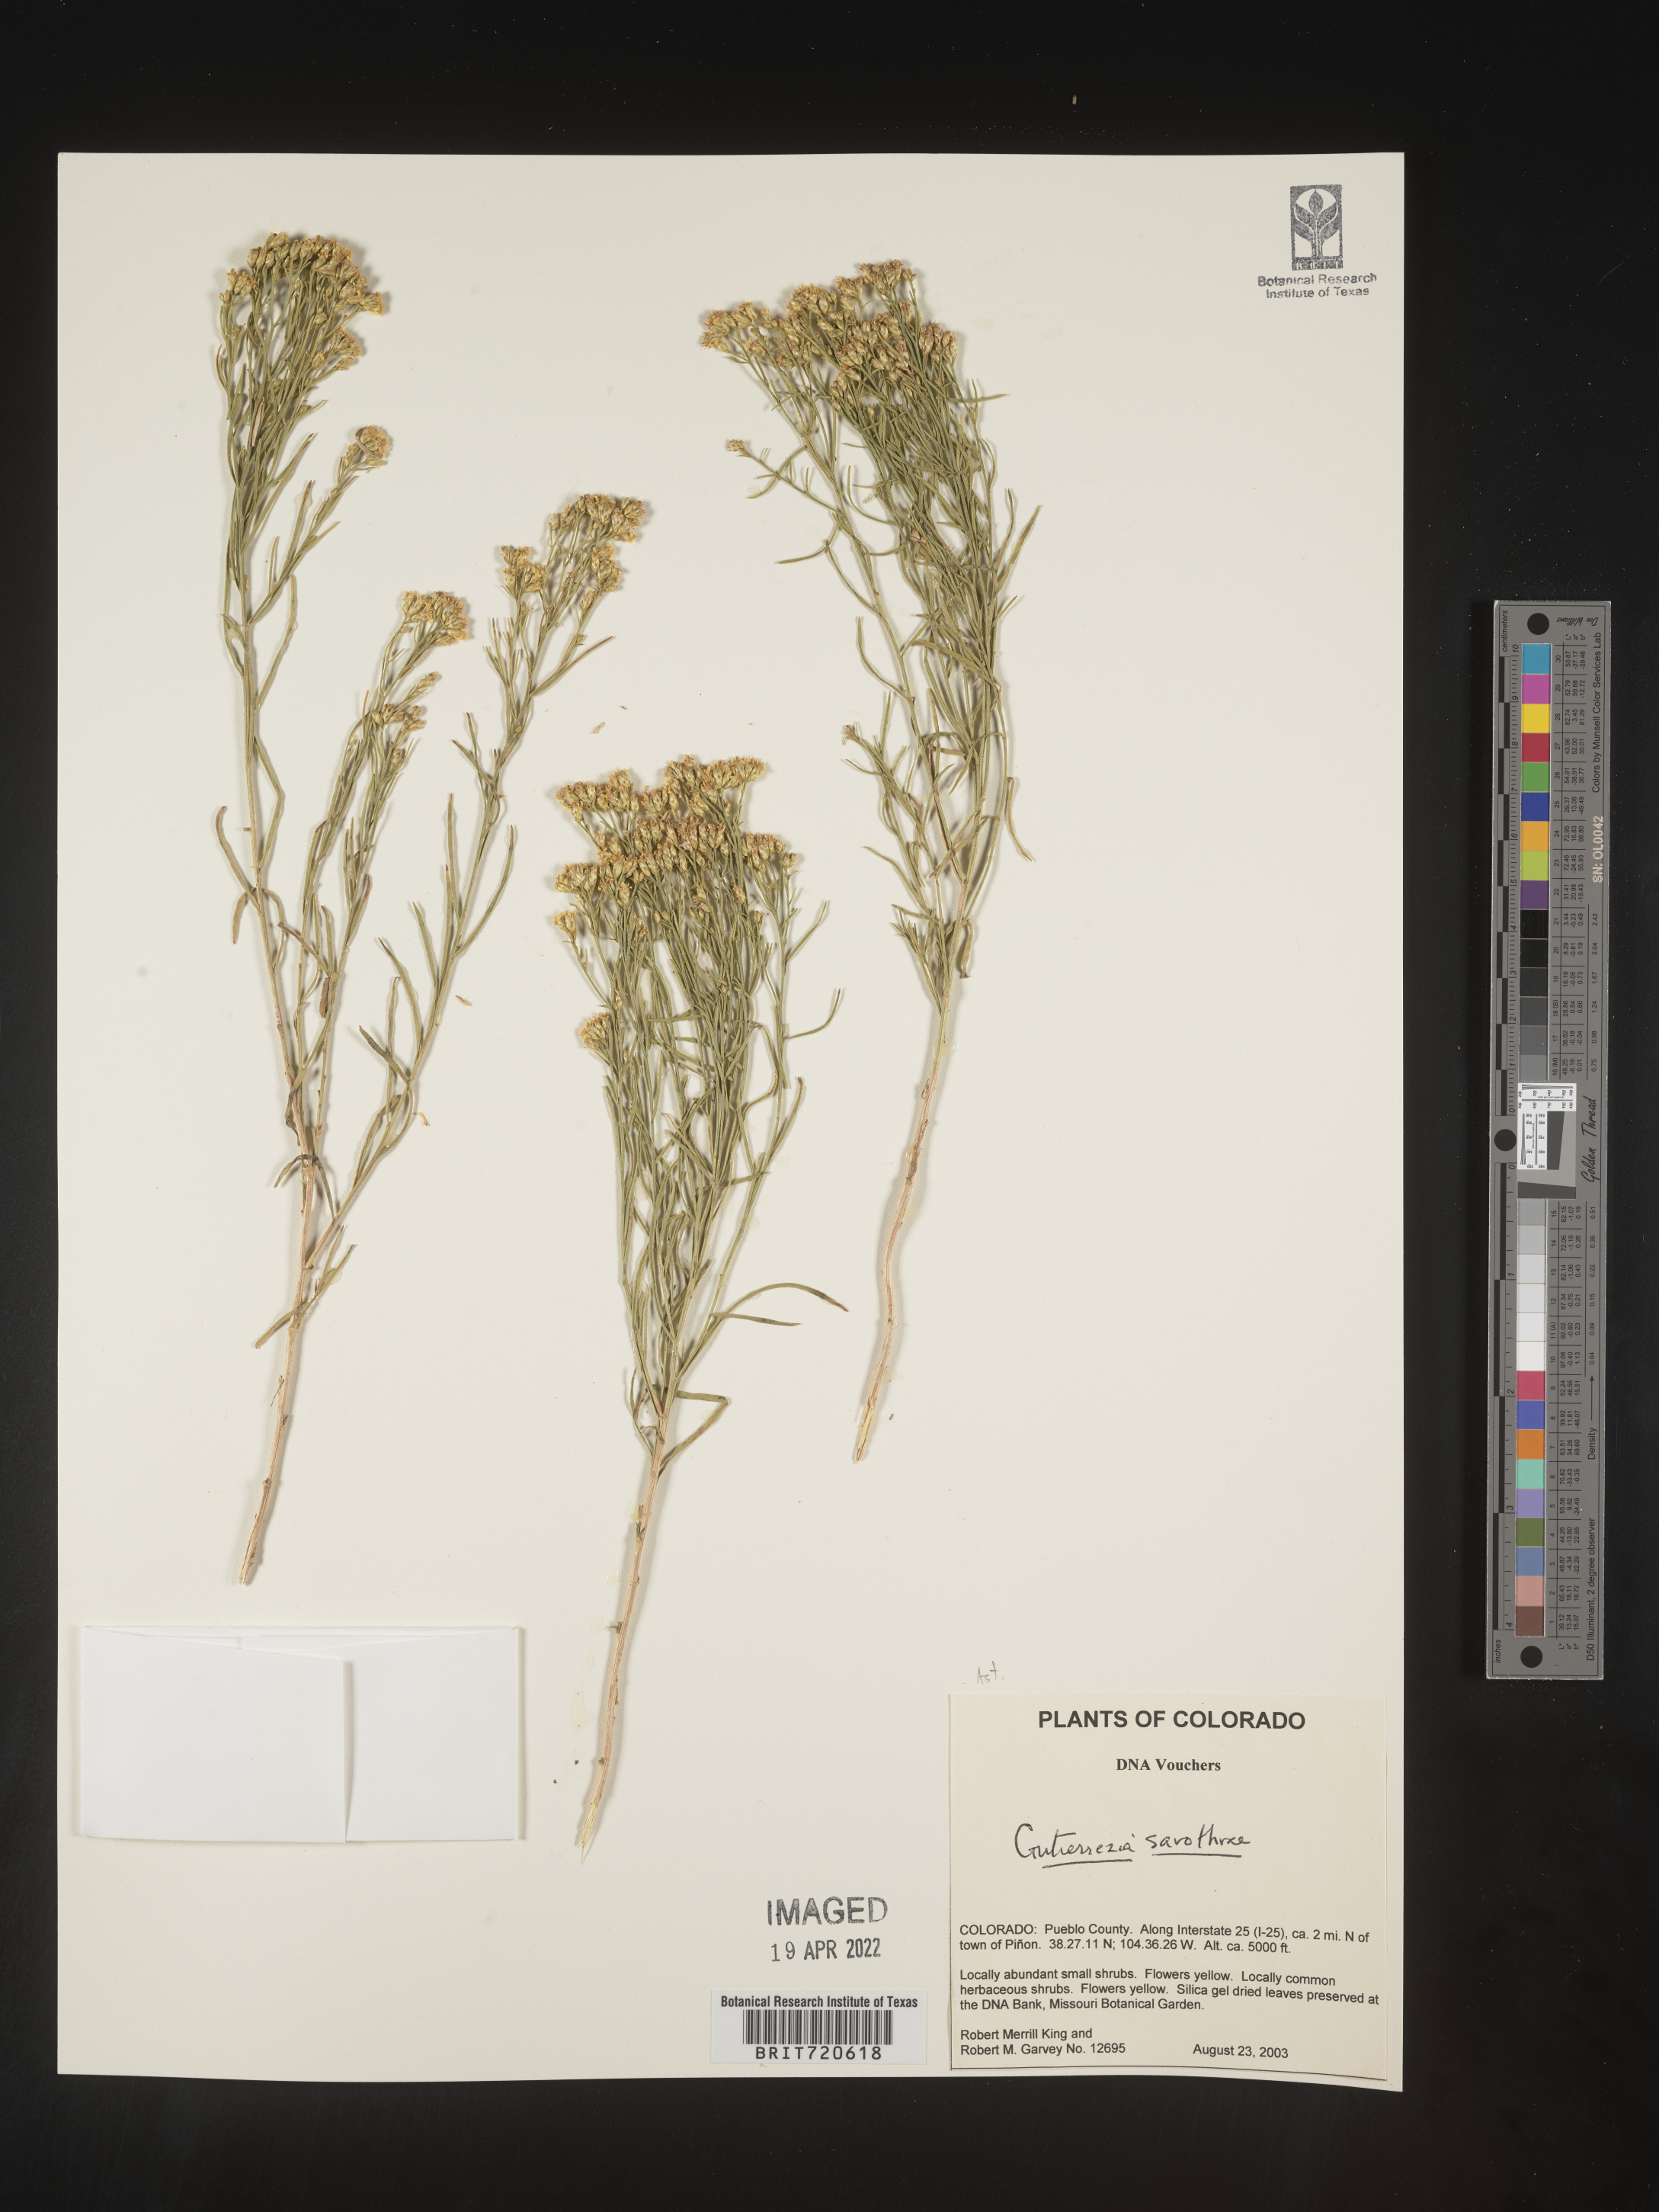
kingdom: Plantae
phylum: Tracheophyta
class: Magnoliopsida
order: Asterales
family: Asteraceae
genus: Gutierrezia
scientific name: Gutierrezia sarothrae
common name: Broom snakeweed
